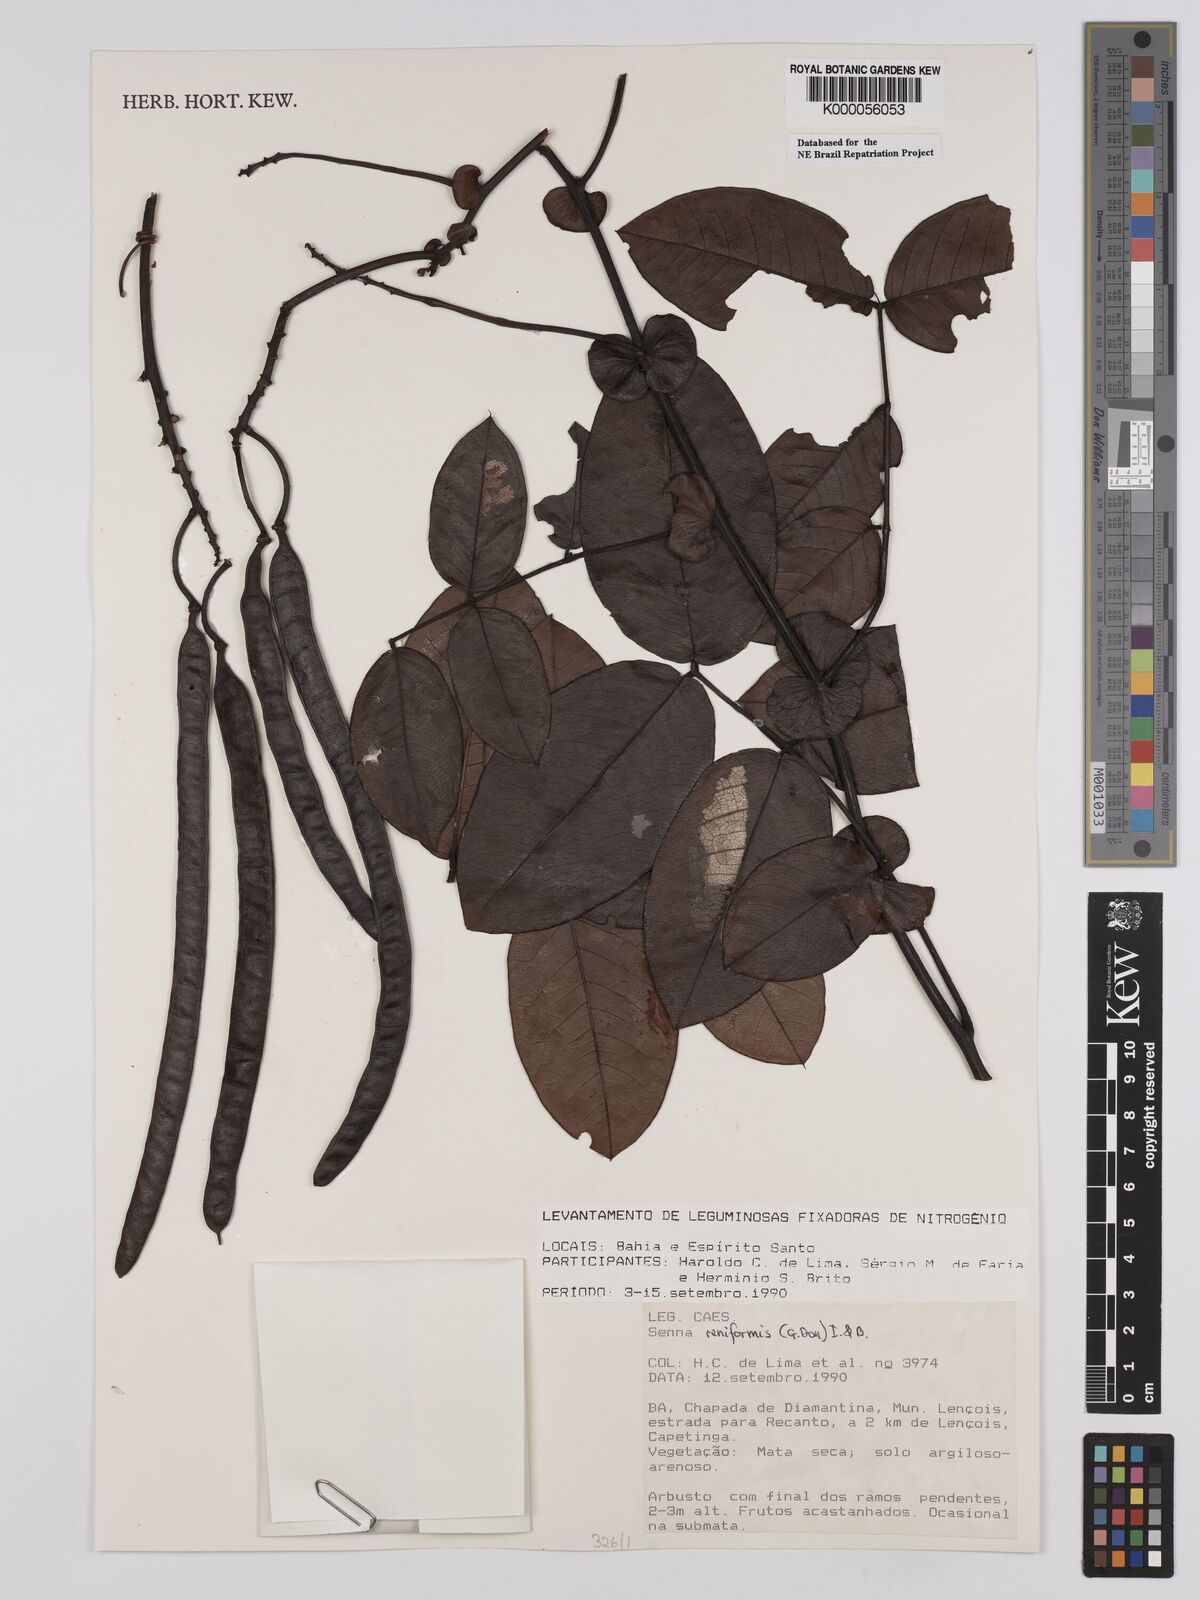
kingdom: Plantae
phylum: Tracheophyta
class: Magnoliopsida
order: Fabales
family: Fabaceae
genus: Senna
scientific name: Senna reniformis
